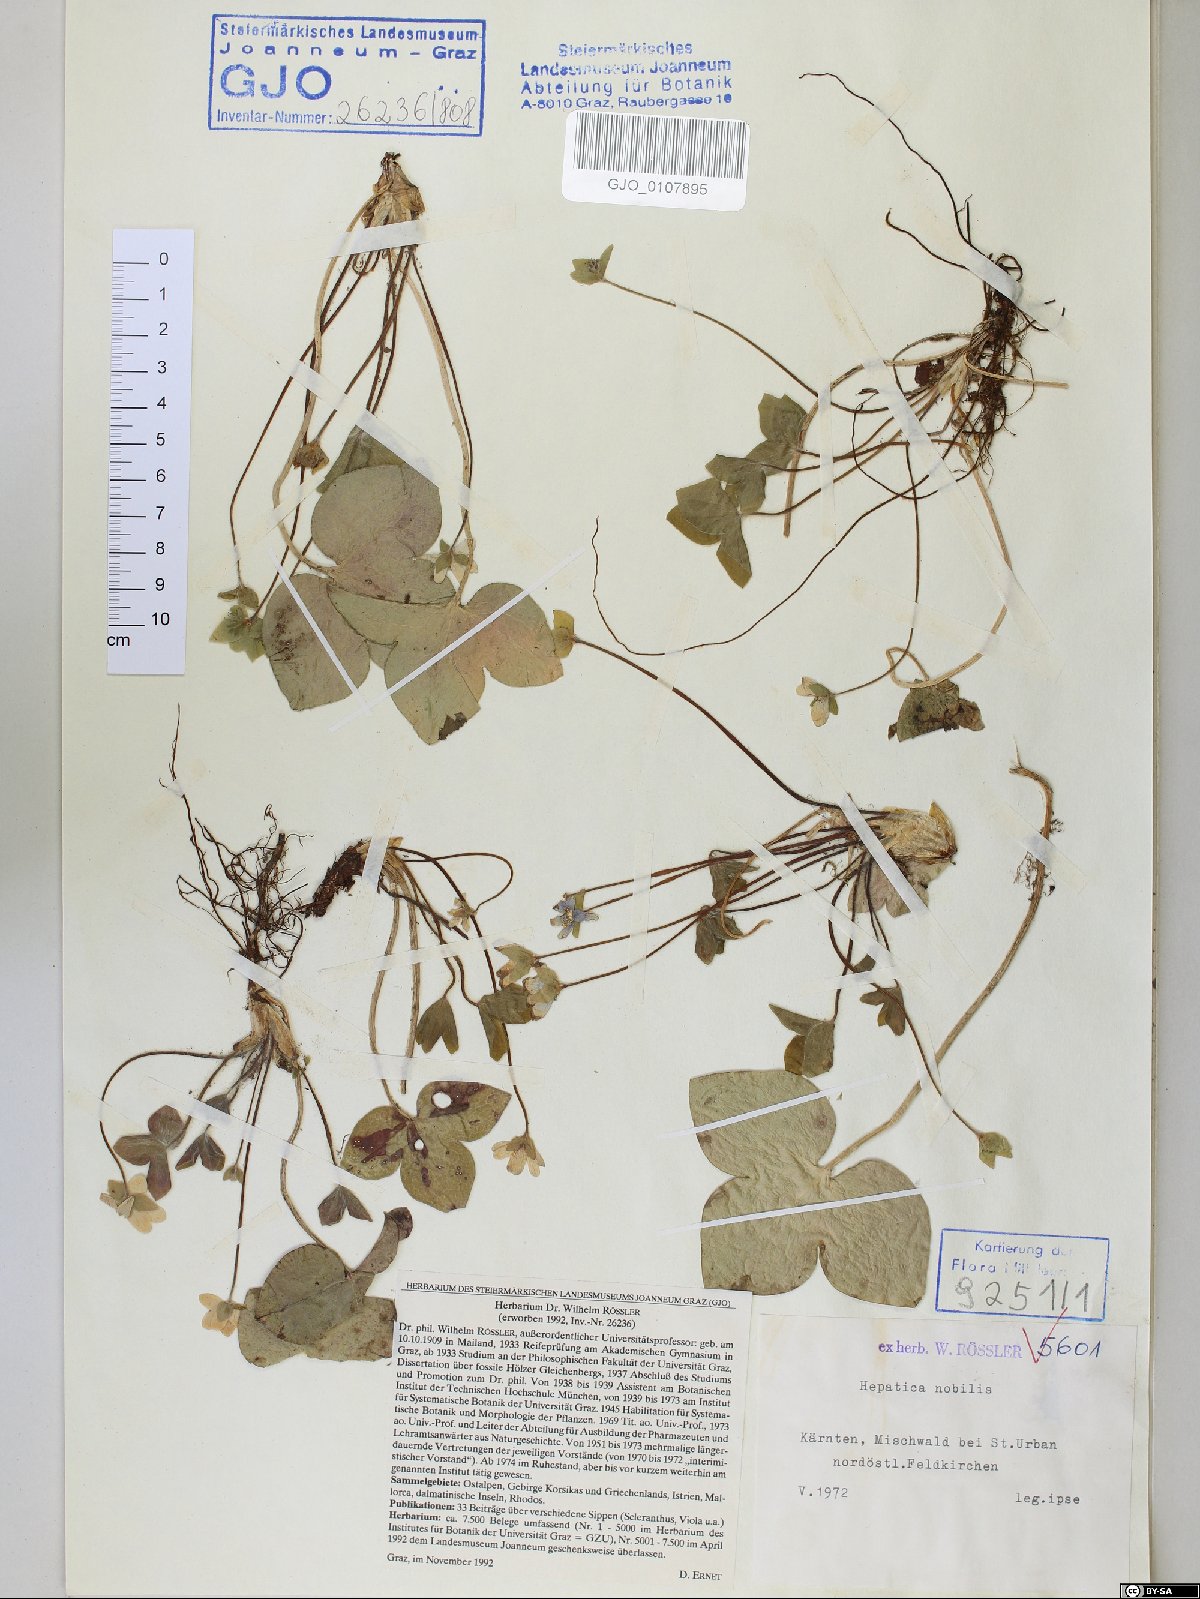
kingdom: Plantae
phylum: Tracheophyta
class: Magnoliopsida
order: Ranunculales
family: Ranunculaceae
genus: Hepatica
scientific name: Hepatica nobilis
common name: Liverleaf
